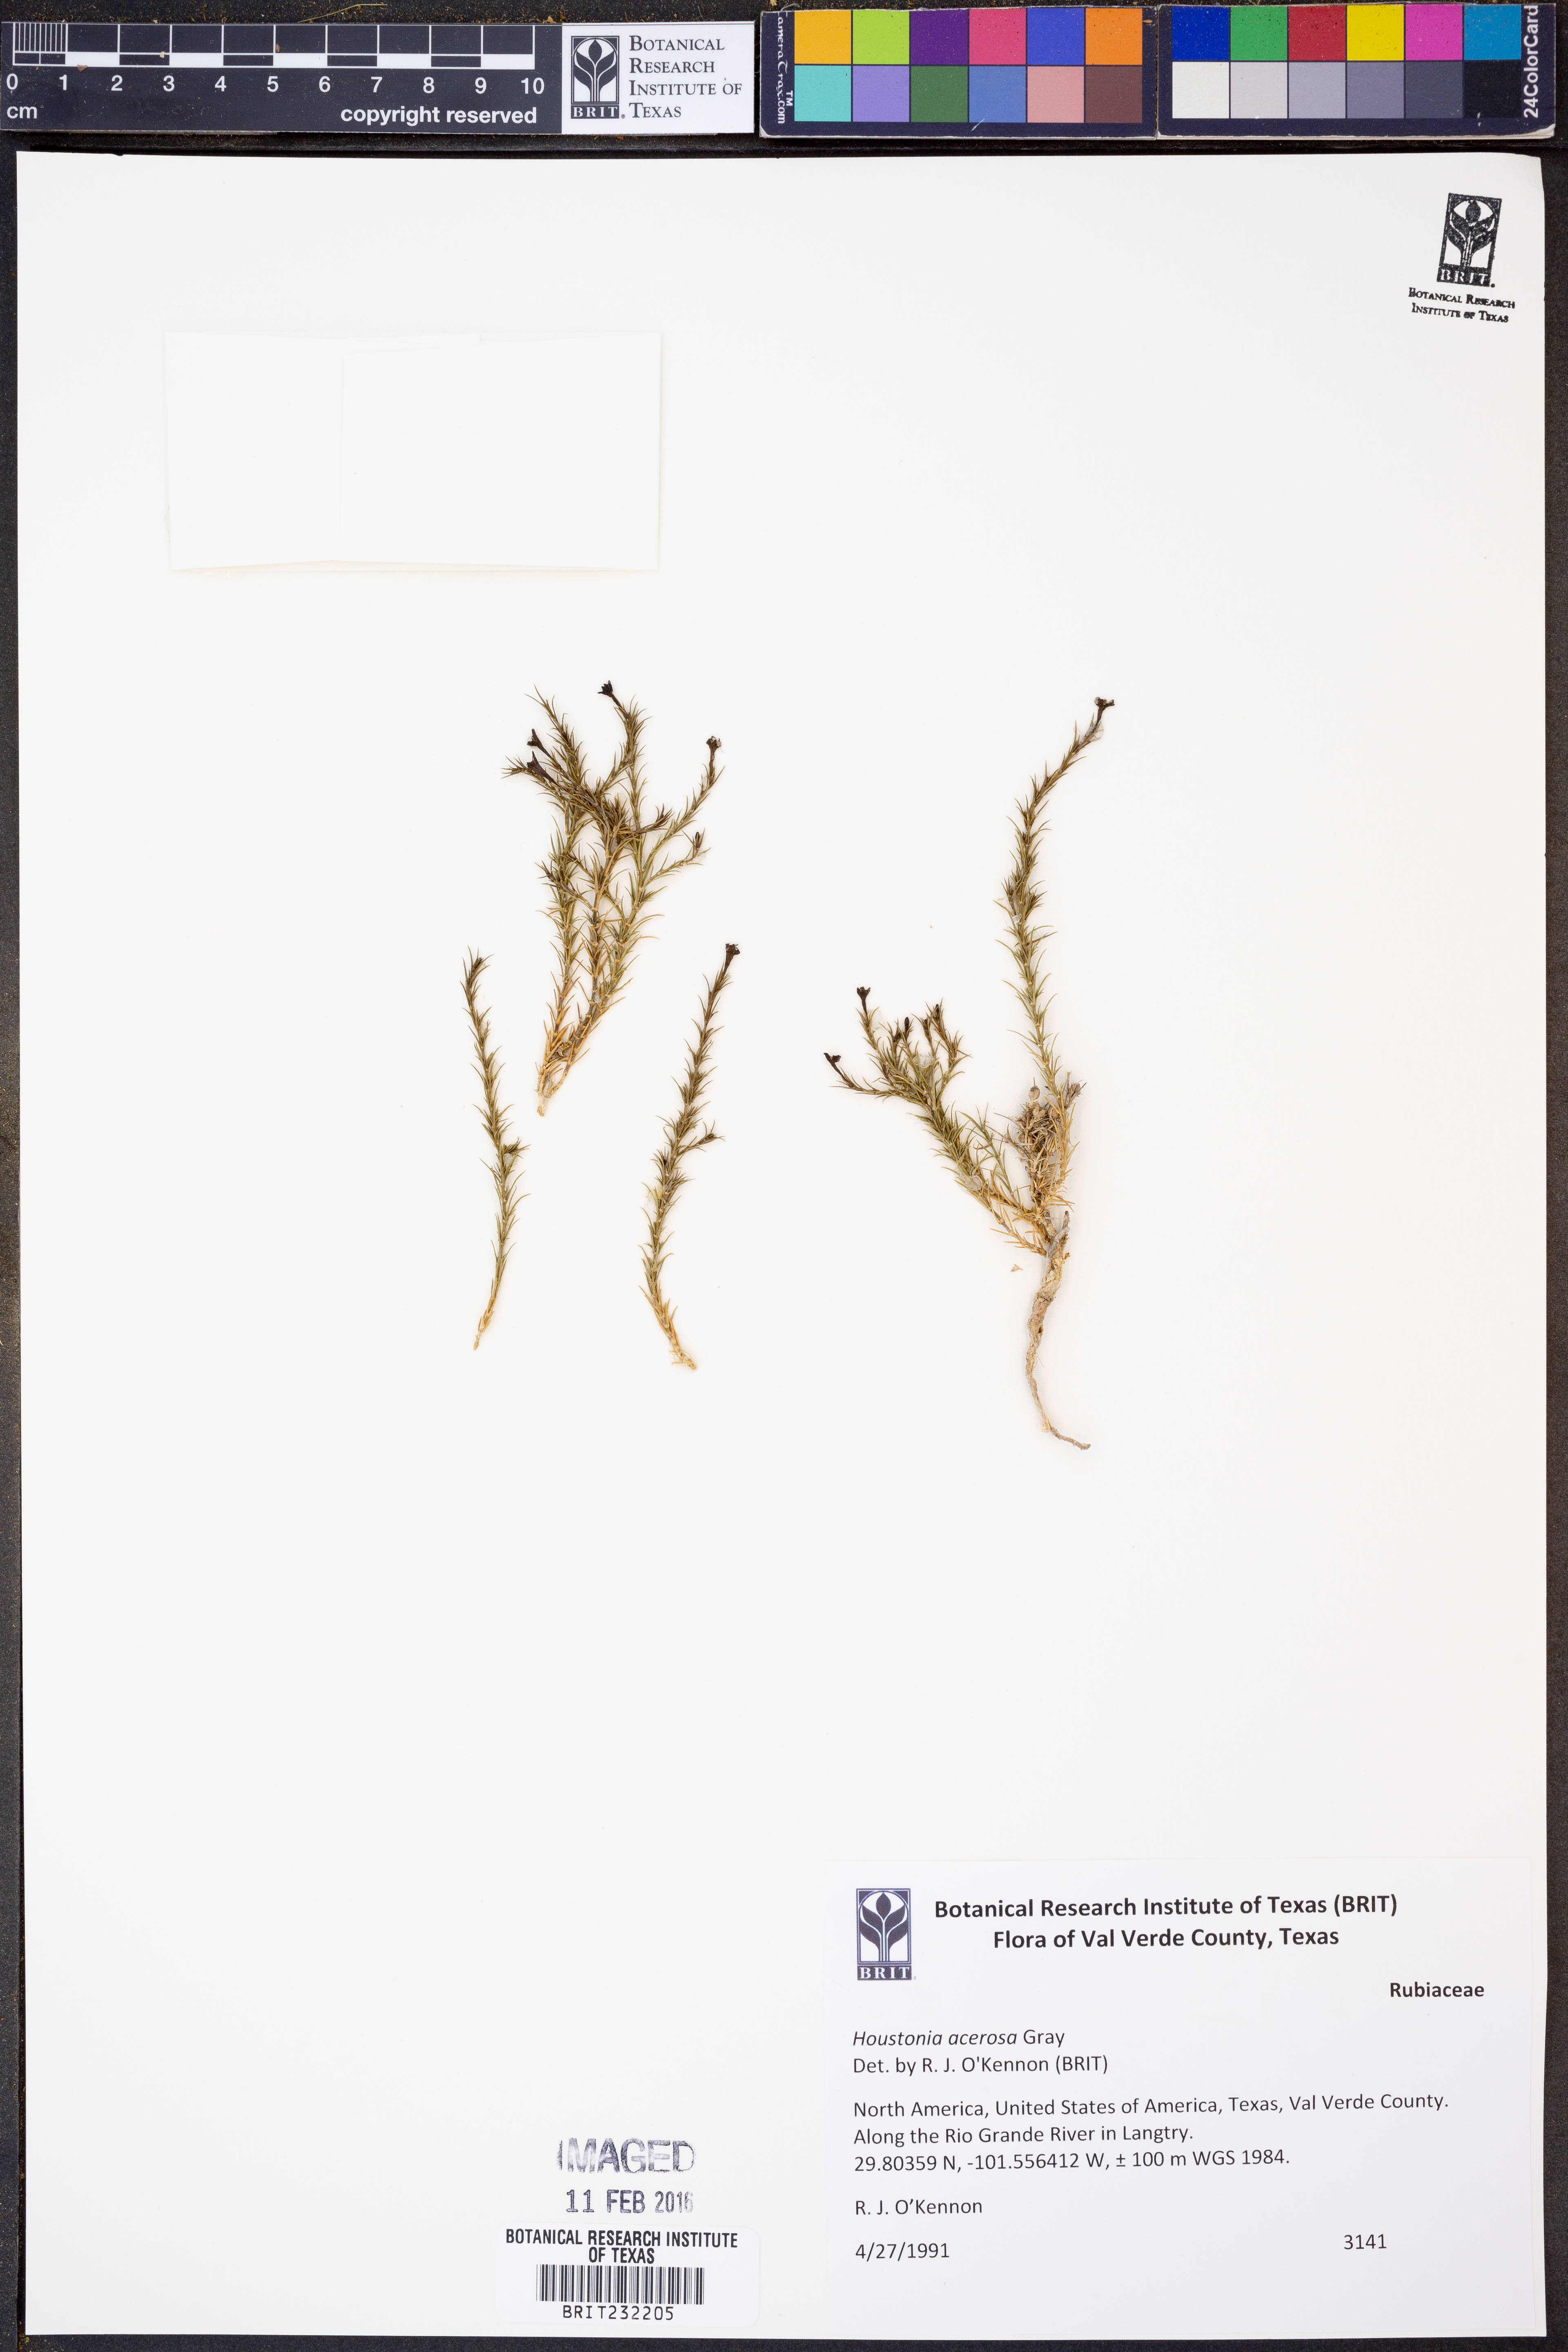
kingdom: Plantae
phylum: Tracheophyta
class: Magnoliopsida
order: Gentianales
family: Rubiaceae
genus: Houstonia
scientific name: Houstonia acerosa
